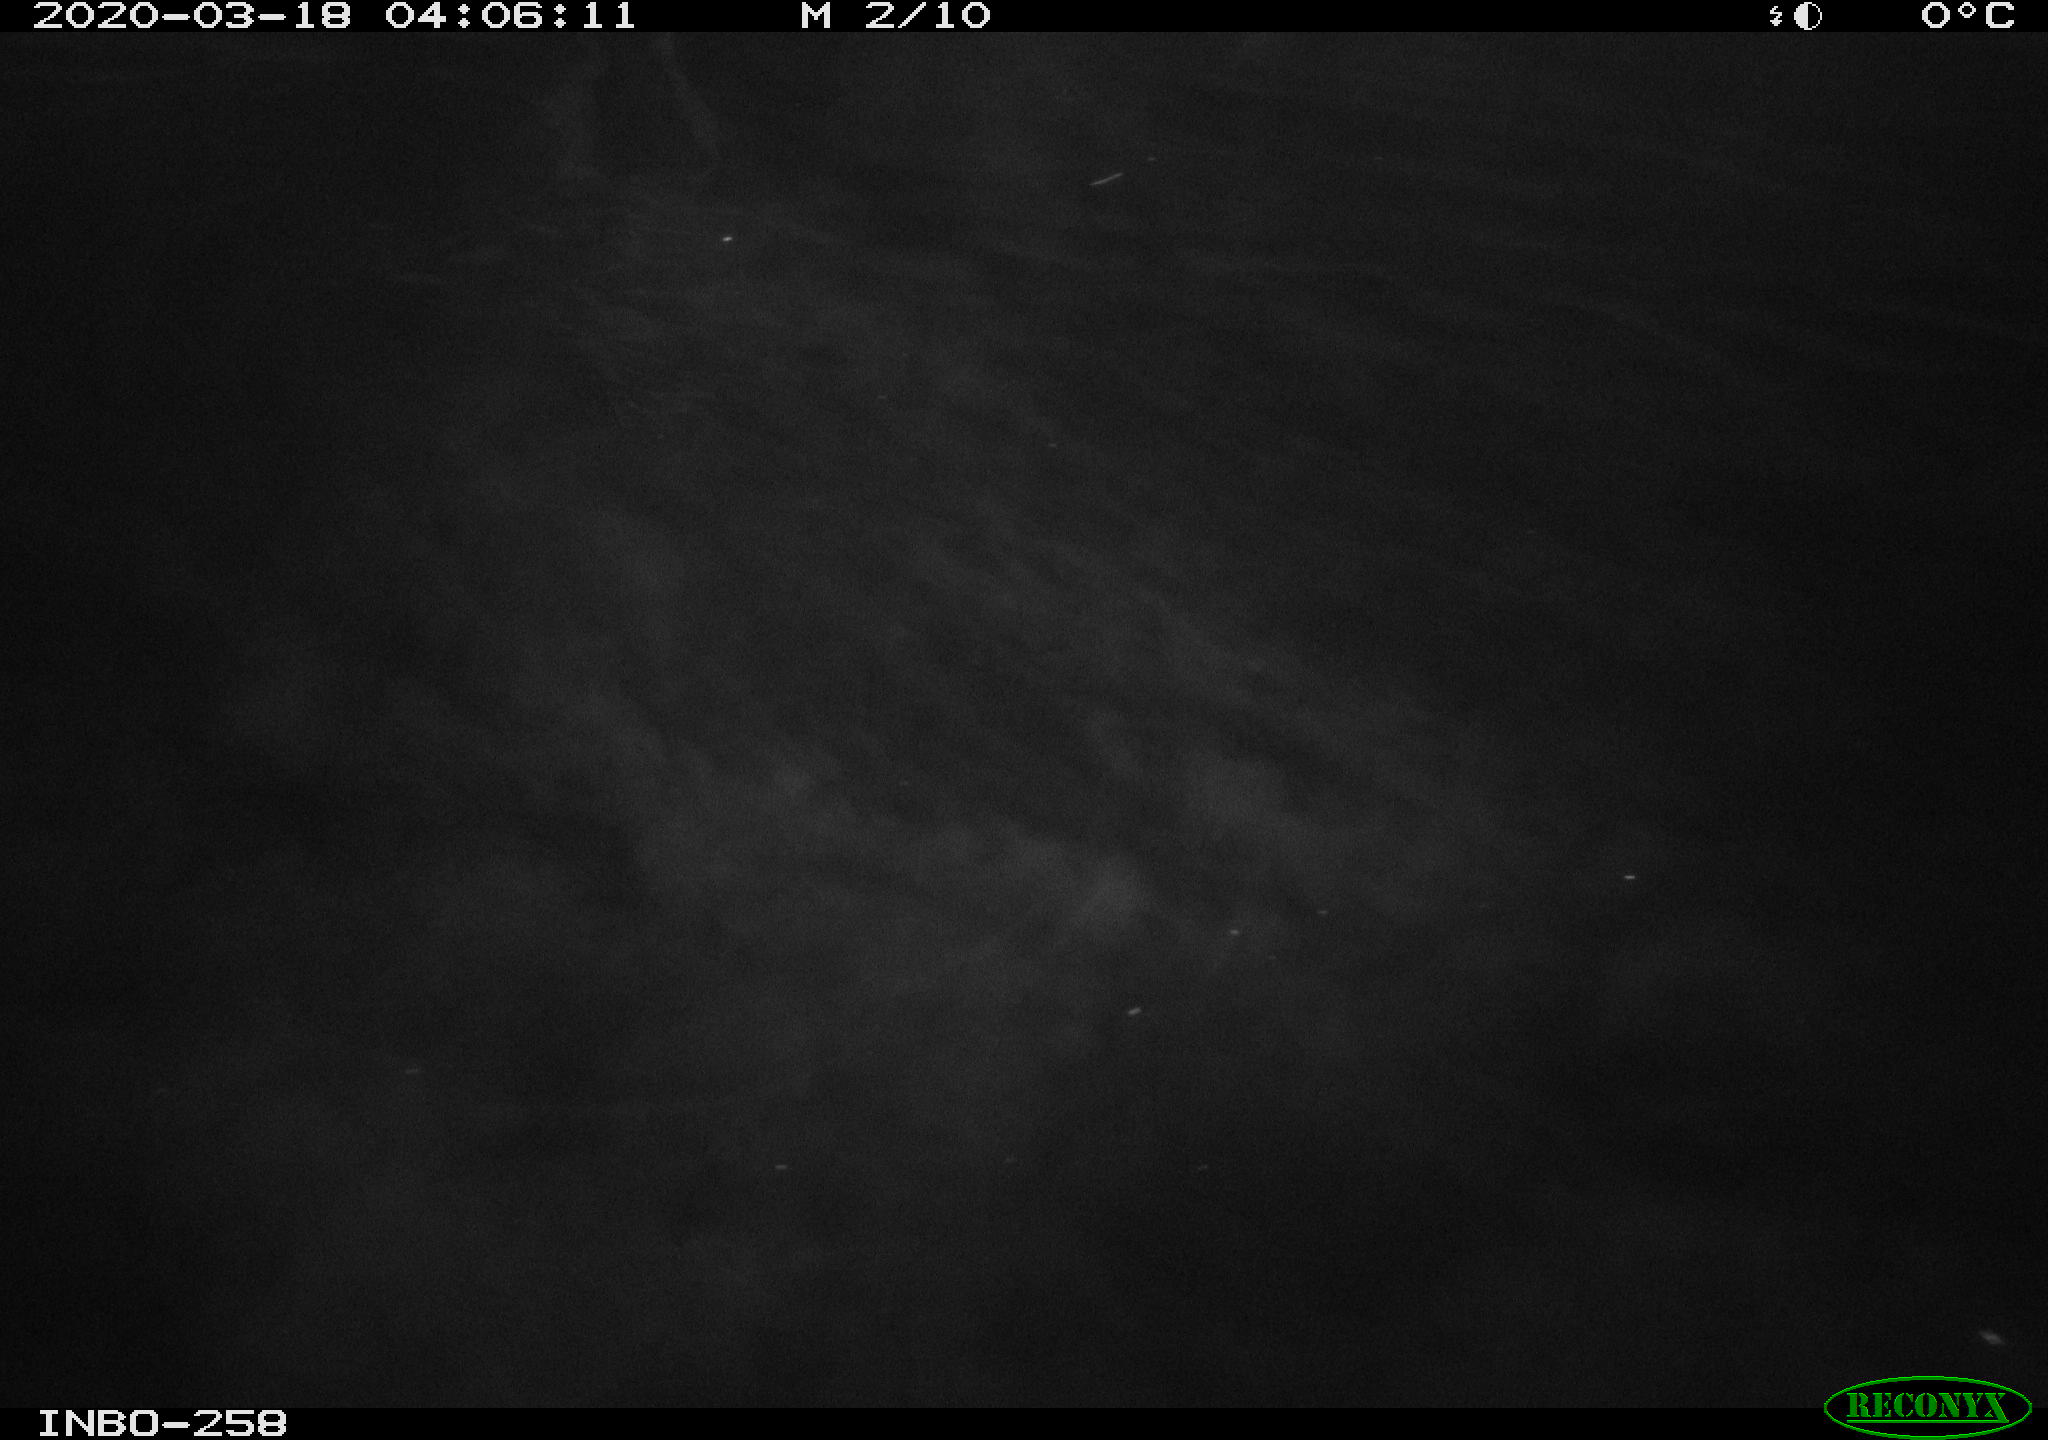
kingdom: Animalia
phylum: Chordata
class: Aves
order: Anseriformes
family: Anatidae
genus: Anas
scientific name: Anas platyrhynchos
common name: Mallard
